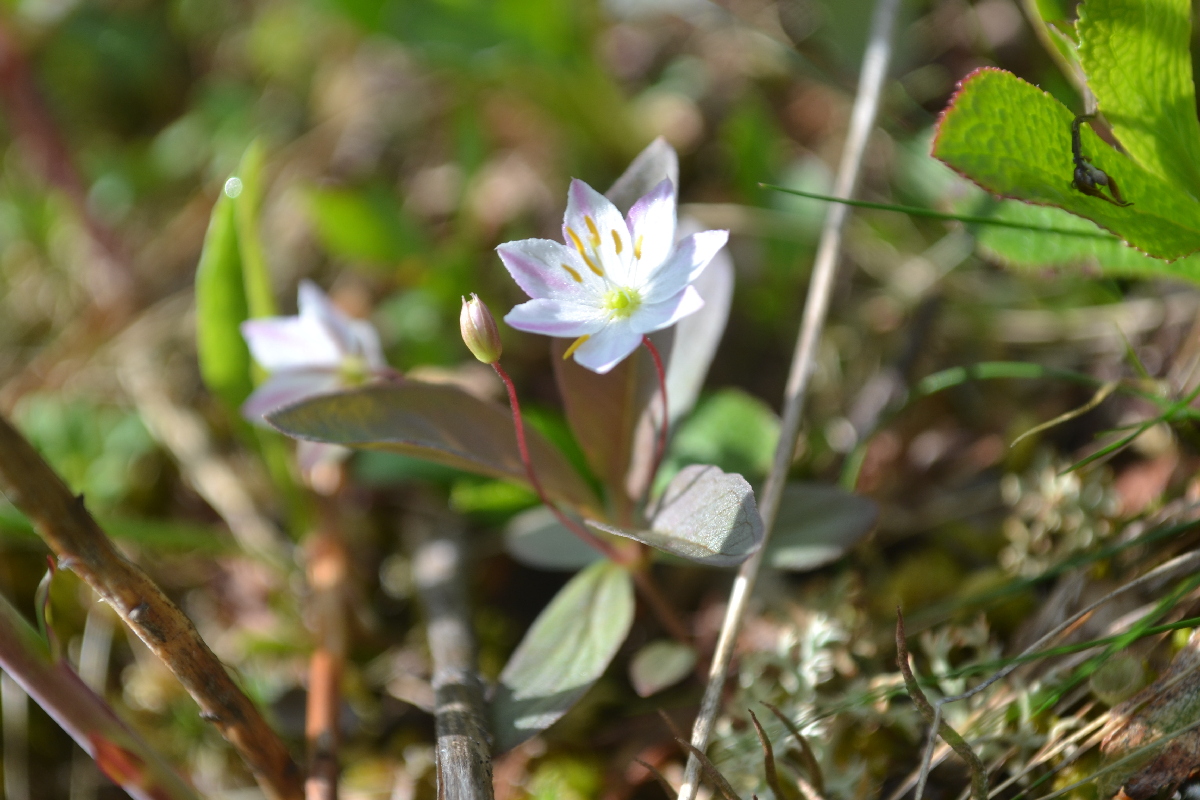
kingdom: Plantae
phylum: Tracheophyta
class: Magnoliopsida
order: Ericales
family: Primulaceae
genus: Lysimachia
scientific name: Lysimachia europaea
